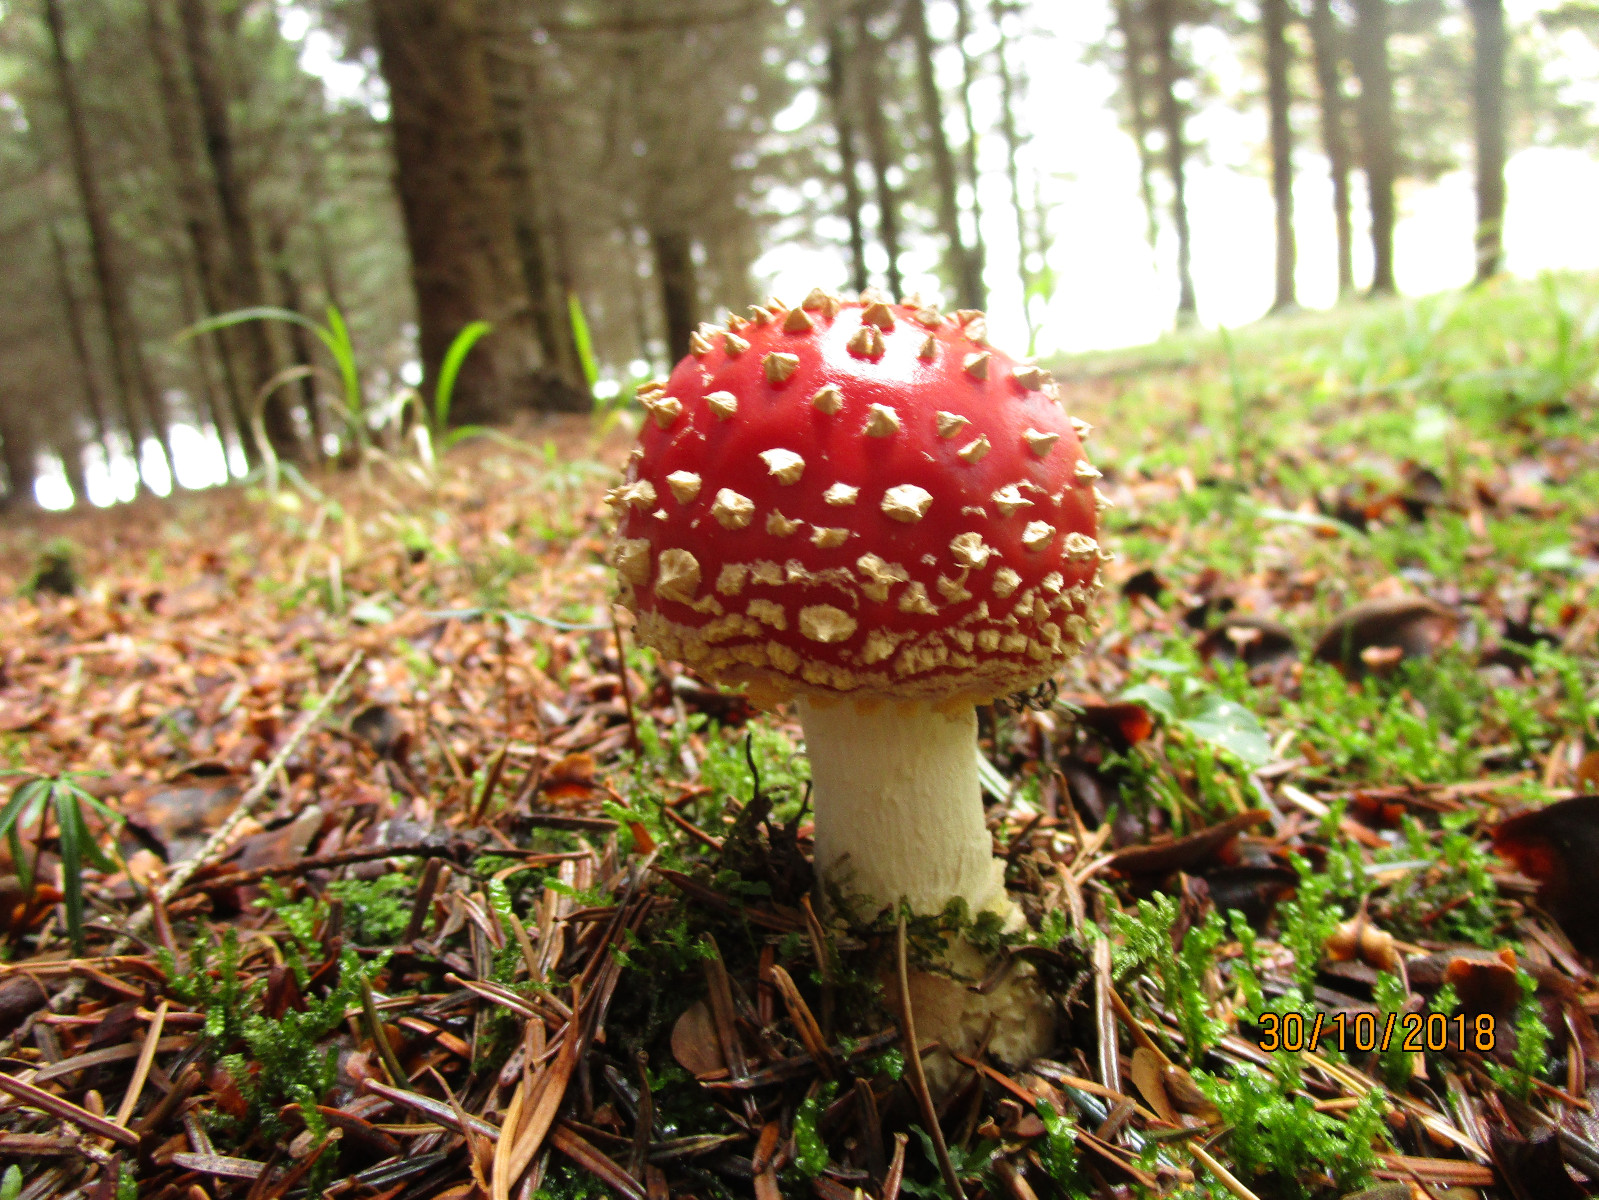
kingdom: Fungi
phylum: Basidiomycota
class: Agaricomycetes
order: Agaricales
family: Amanitaceae
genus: Amanita
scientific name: Amanita muscaria
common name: rød fluesvamp
